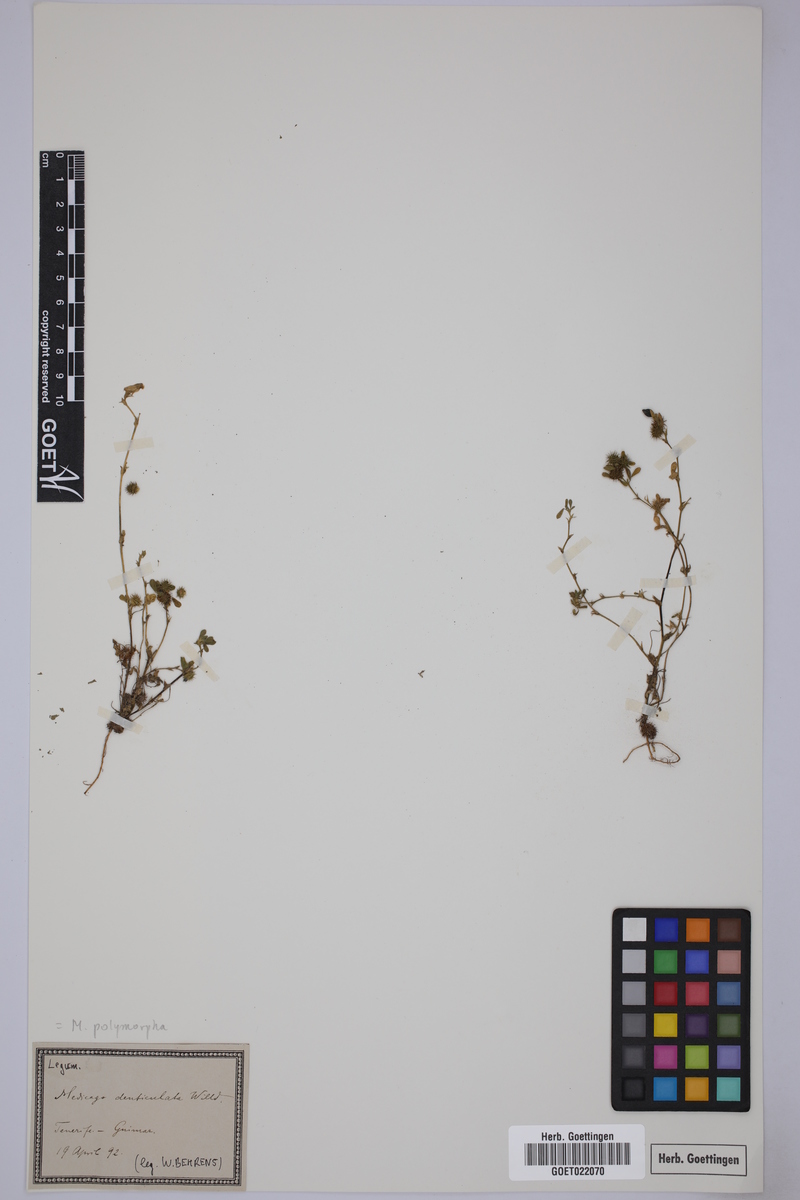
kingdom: Plantae
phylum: Tracheophyta
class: Magnoliopsida
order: Fabales
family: Fabaceae
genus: Medicago
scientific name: Medicago polymorpha
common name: Burclover
